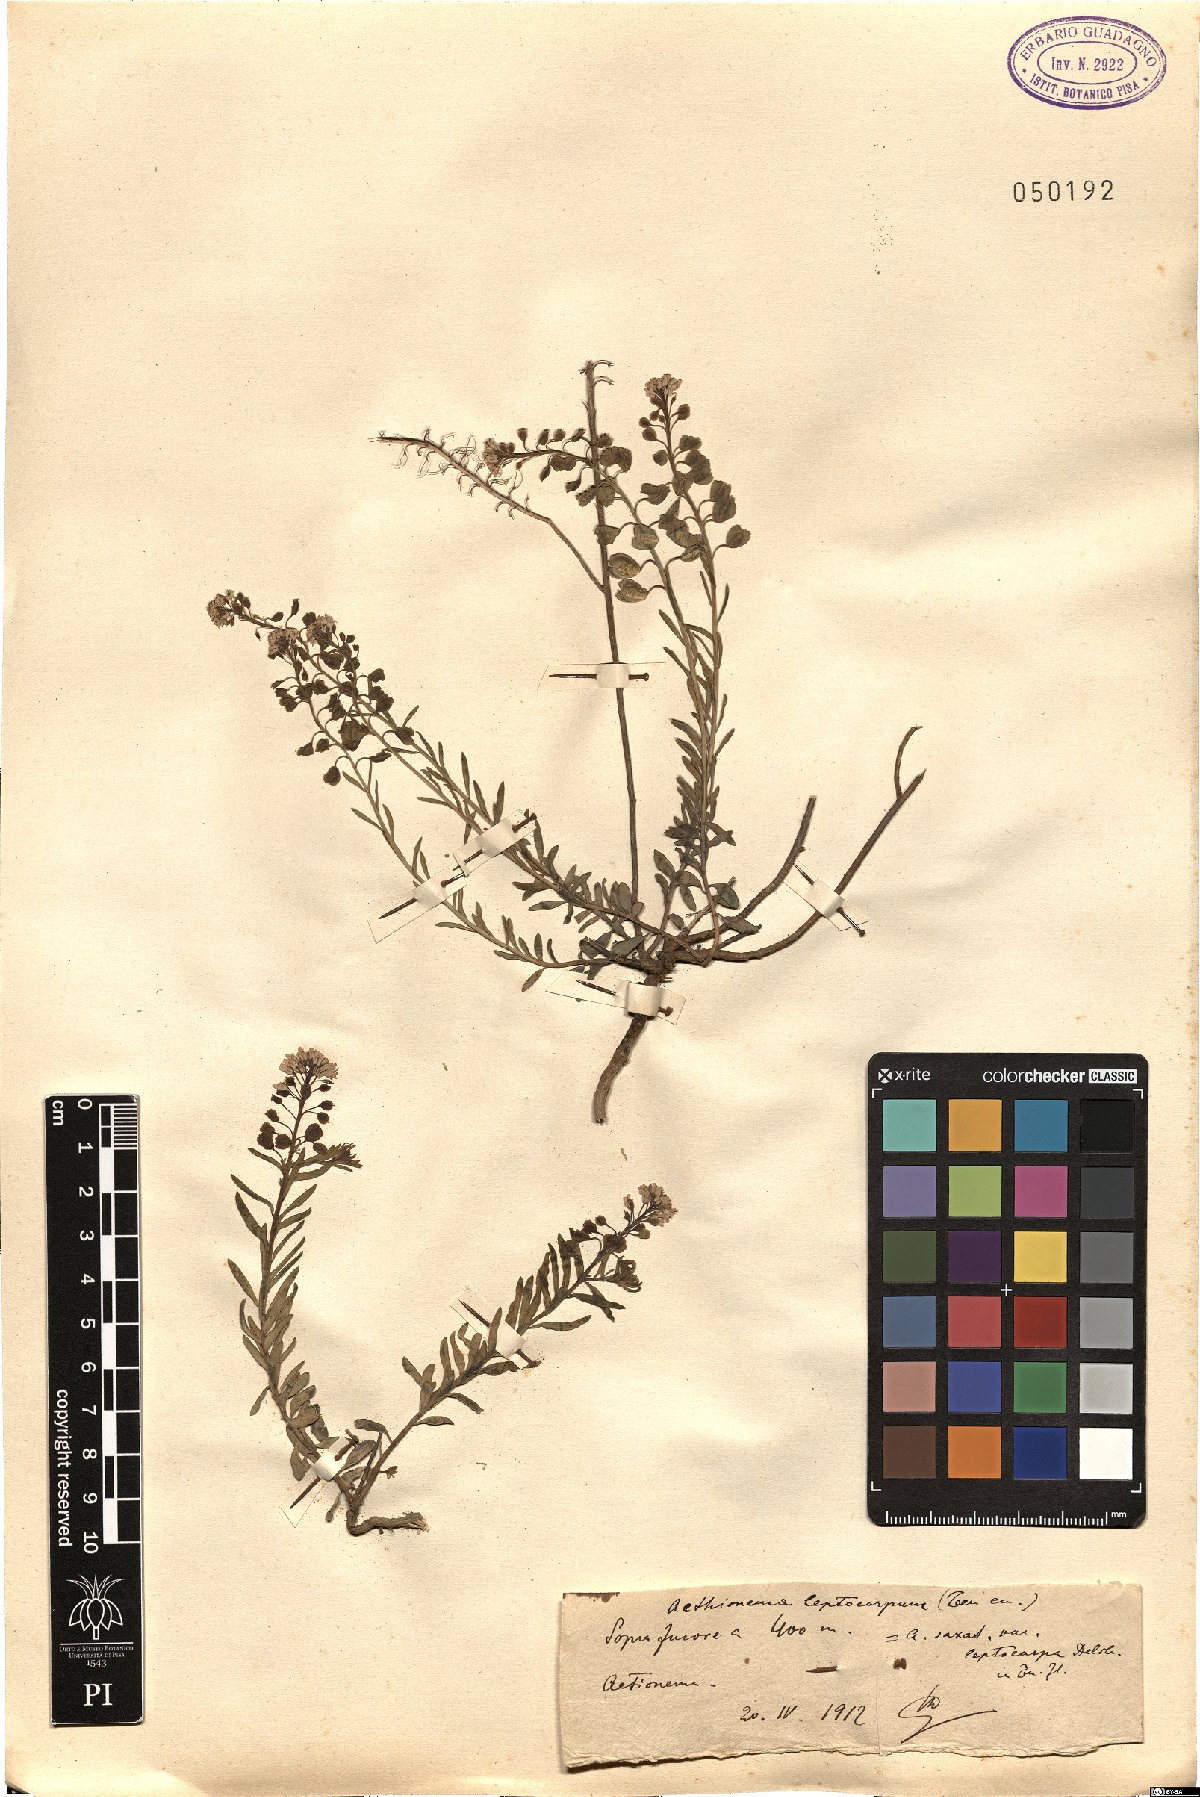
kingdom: Plantae
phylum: Tracheophyta
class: Magnoliopsida
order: Brassicales
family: Brassicaceae
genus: Aethionema
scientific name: Aethionema leptocarpium
